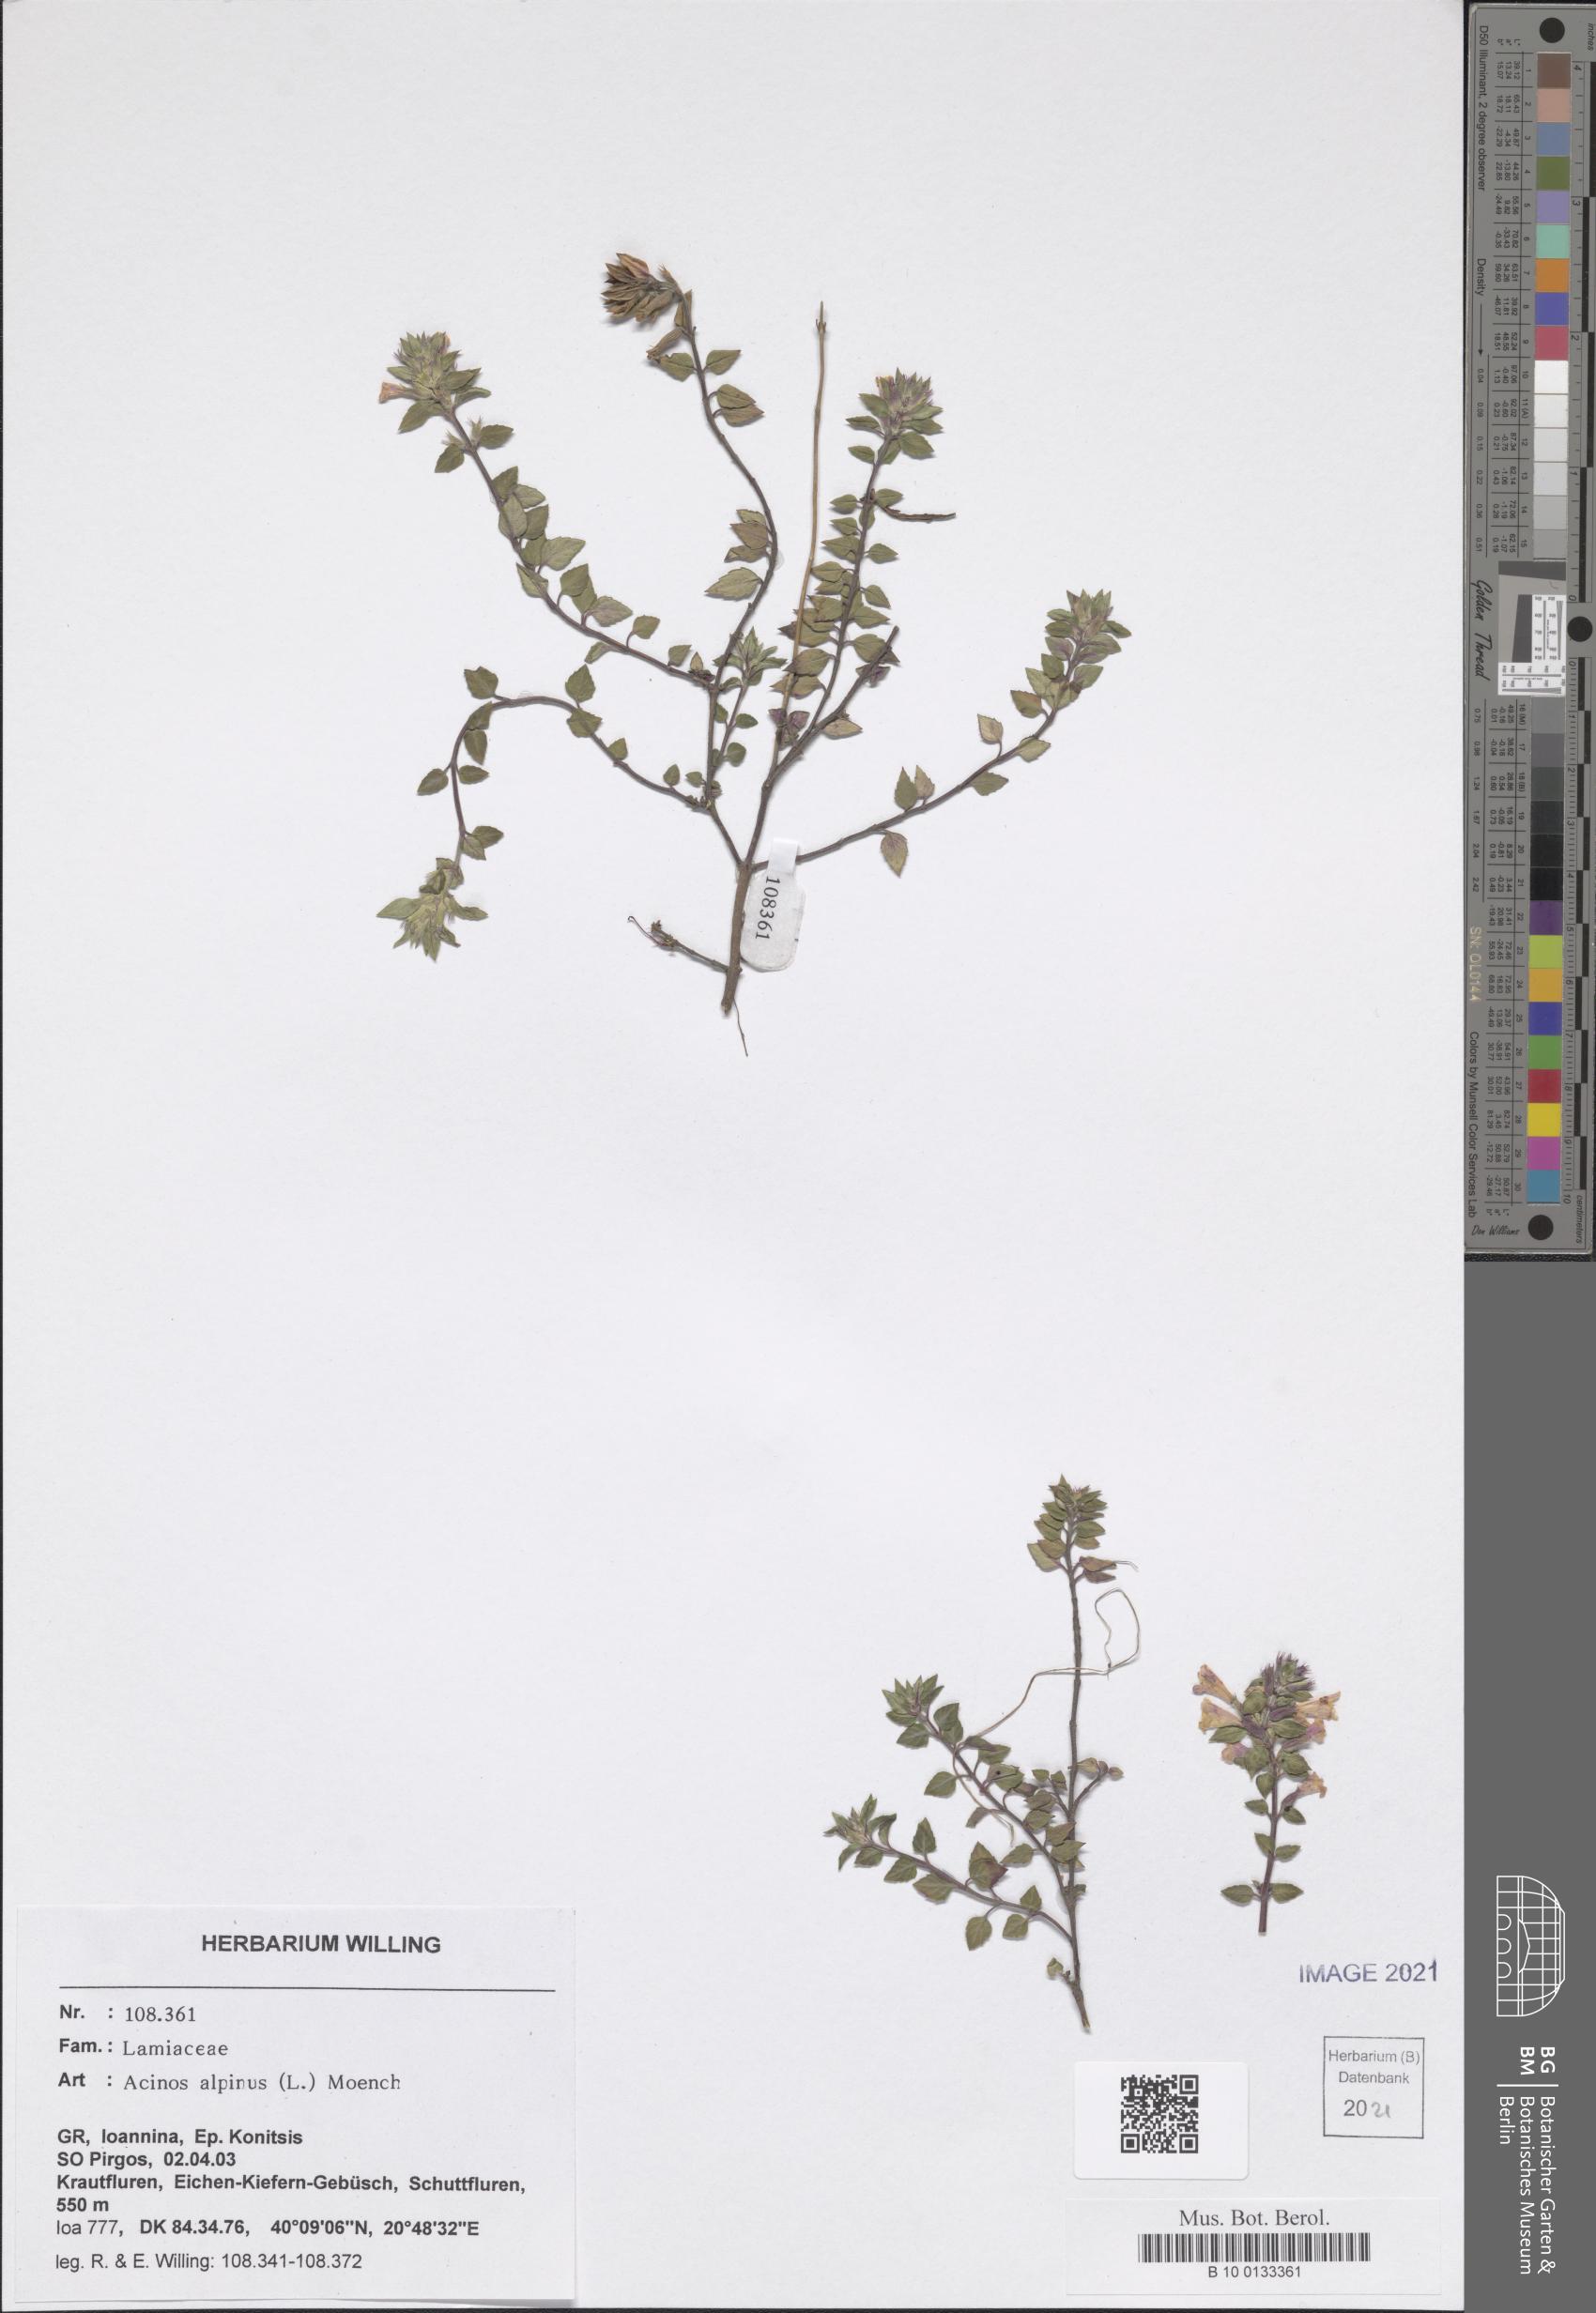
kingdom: Plantae
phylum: Tracheophyta
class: Magnoliopsida
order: Lamiales
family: Lamiaceae
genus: Clinopodium
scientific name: Clinopodium alpinum
